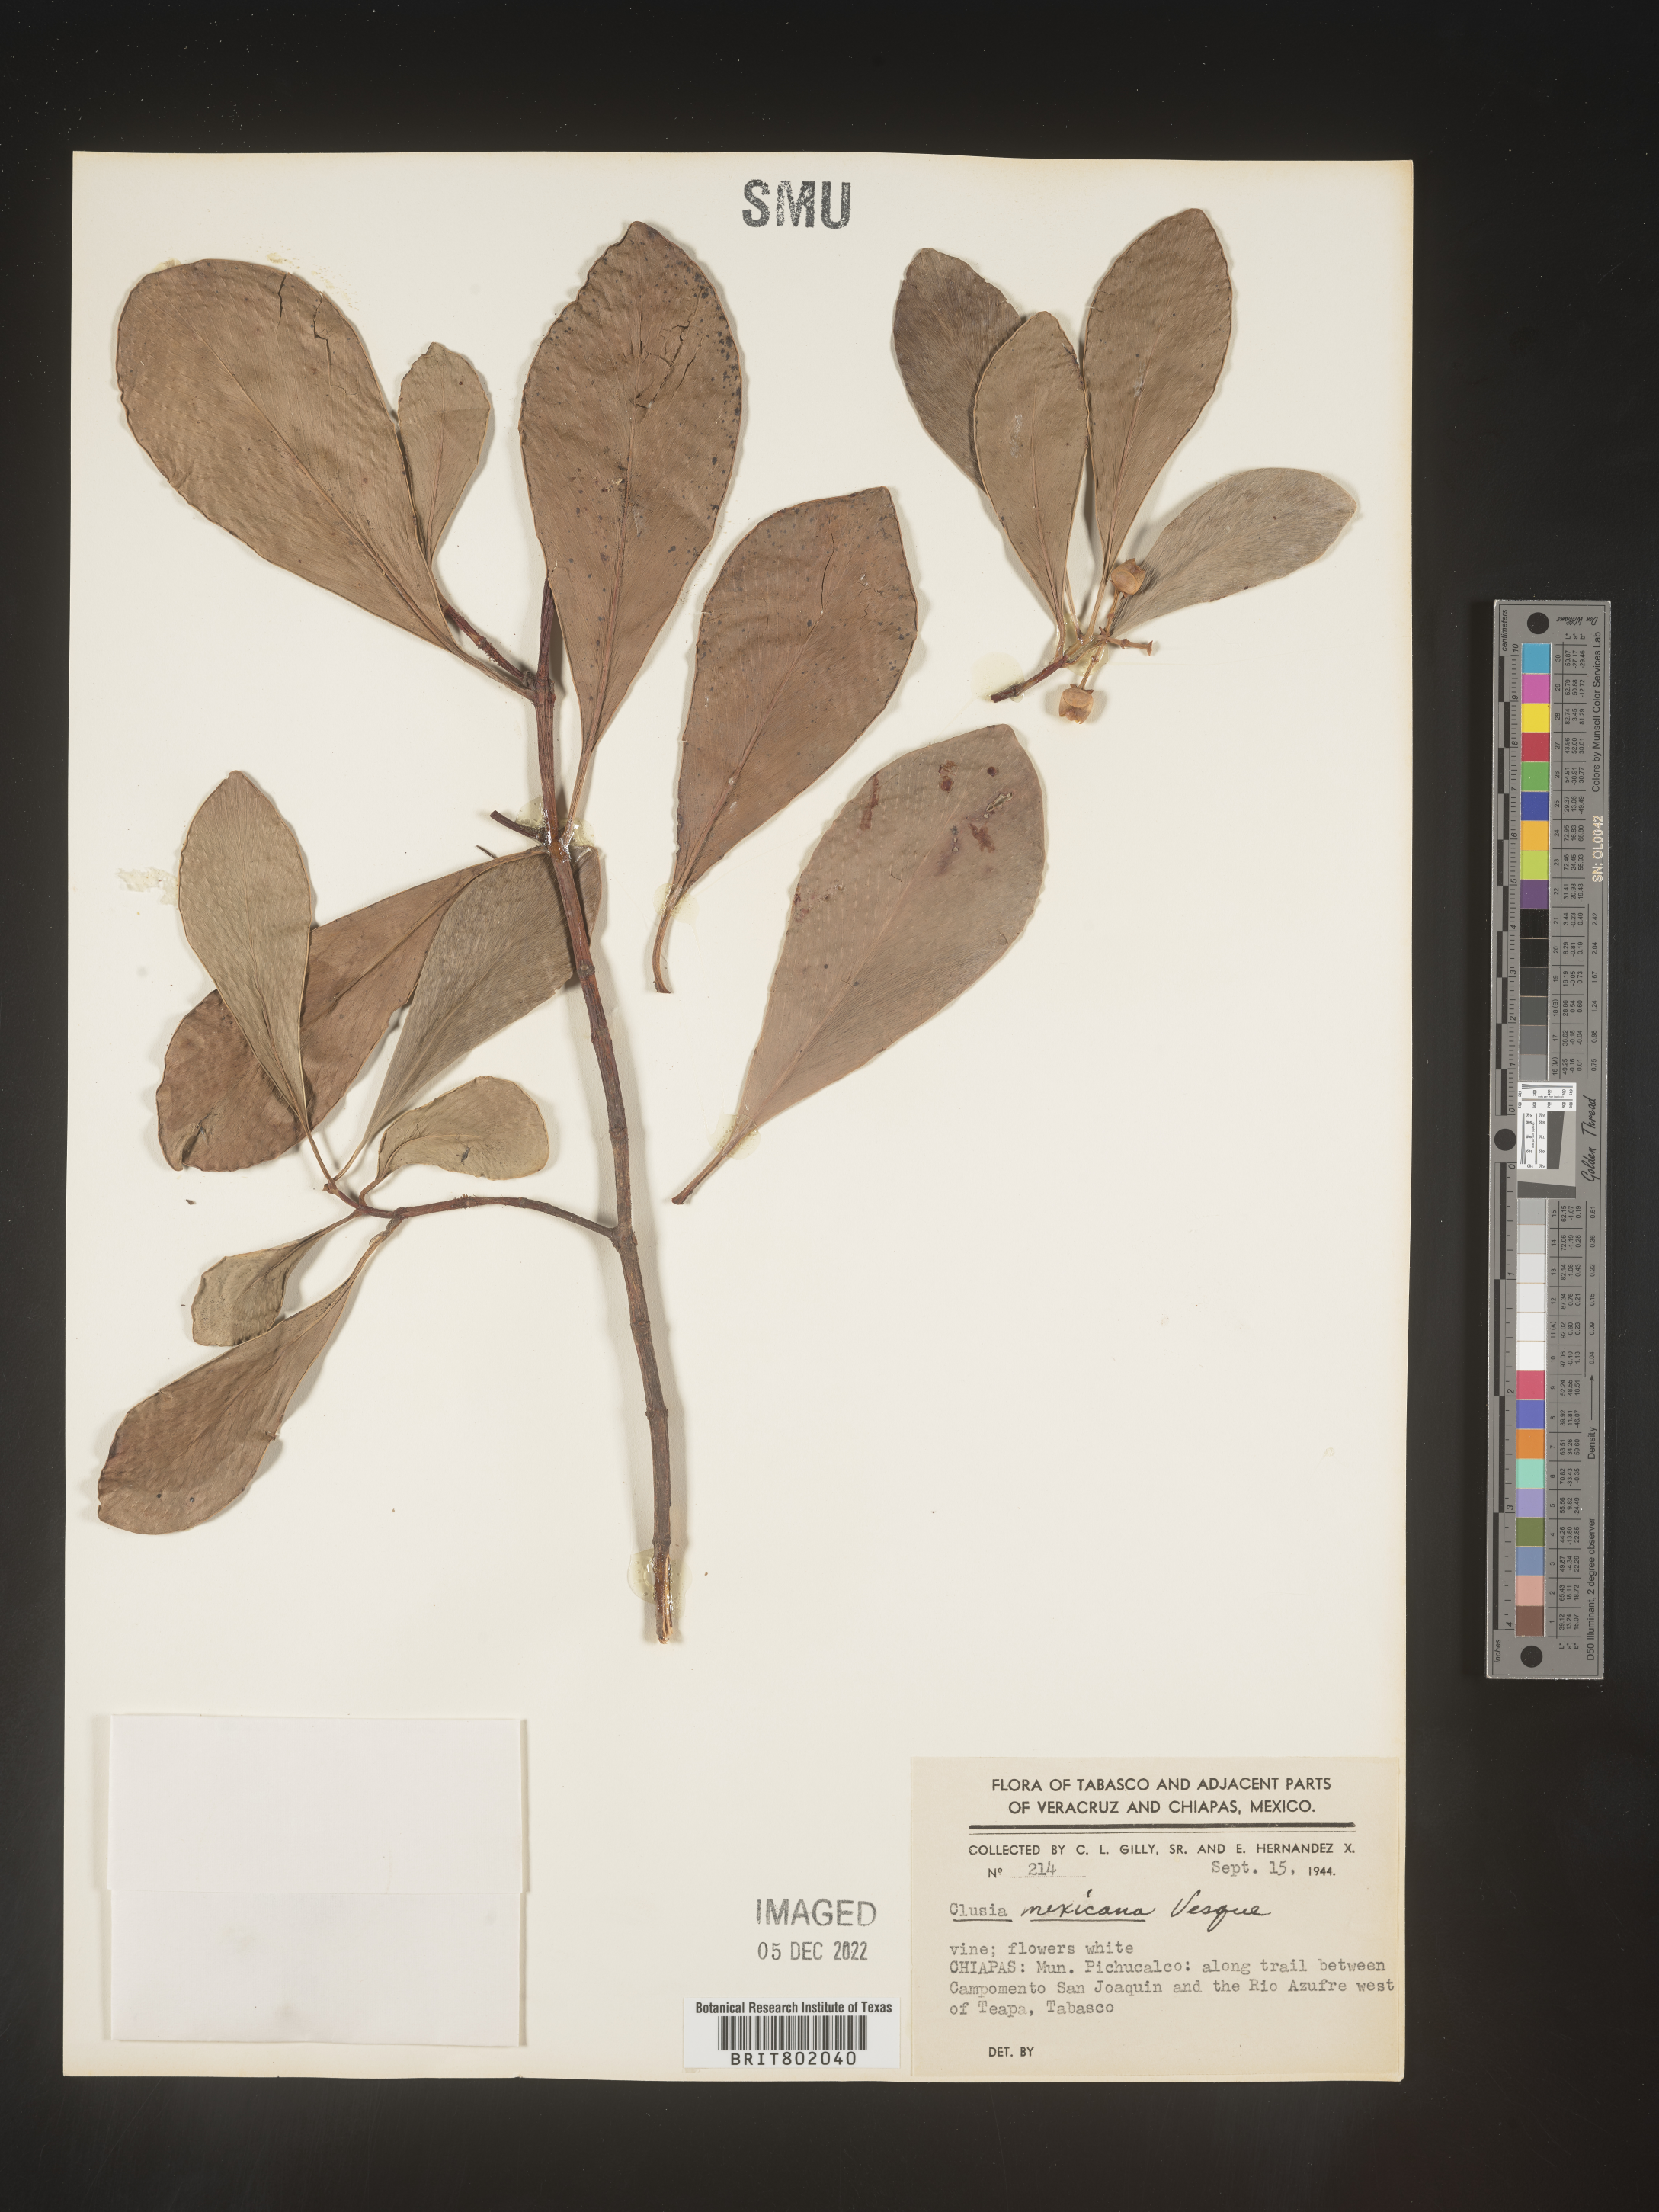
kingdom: Plantae
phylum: Tracheophyta
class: Magnoliopsida
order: Malpighiales
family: Clusiaceae
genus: Clusia
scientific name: Clusia
